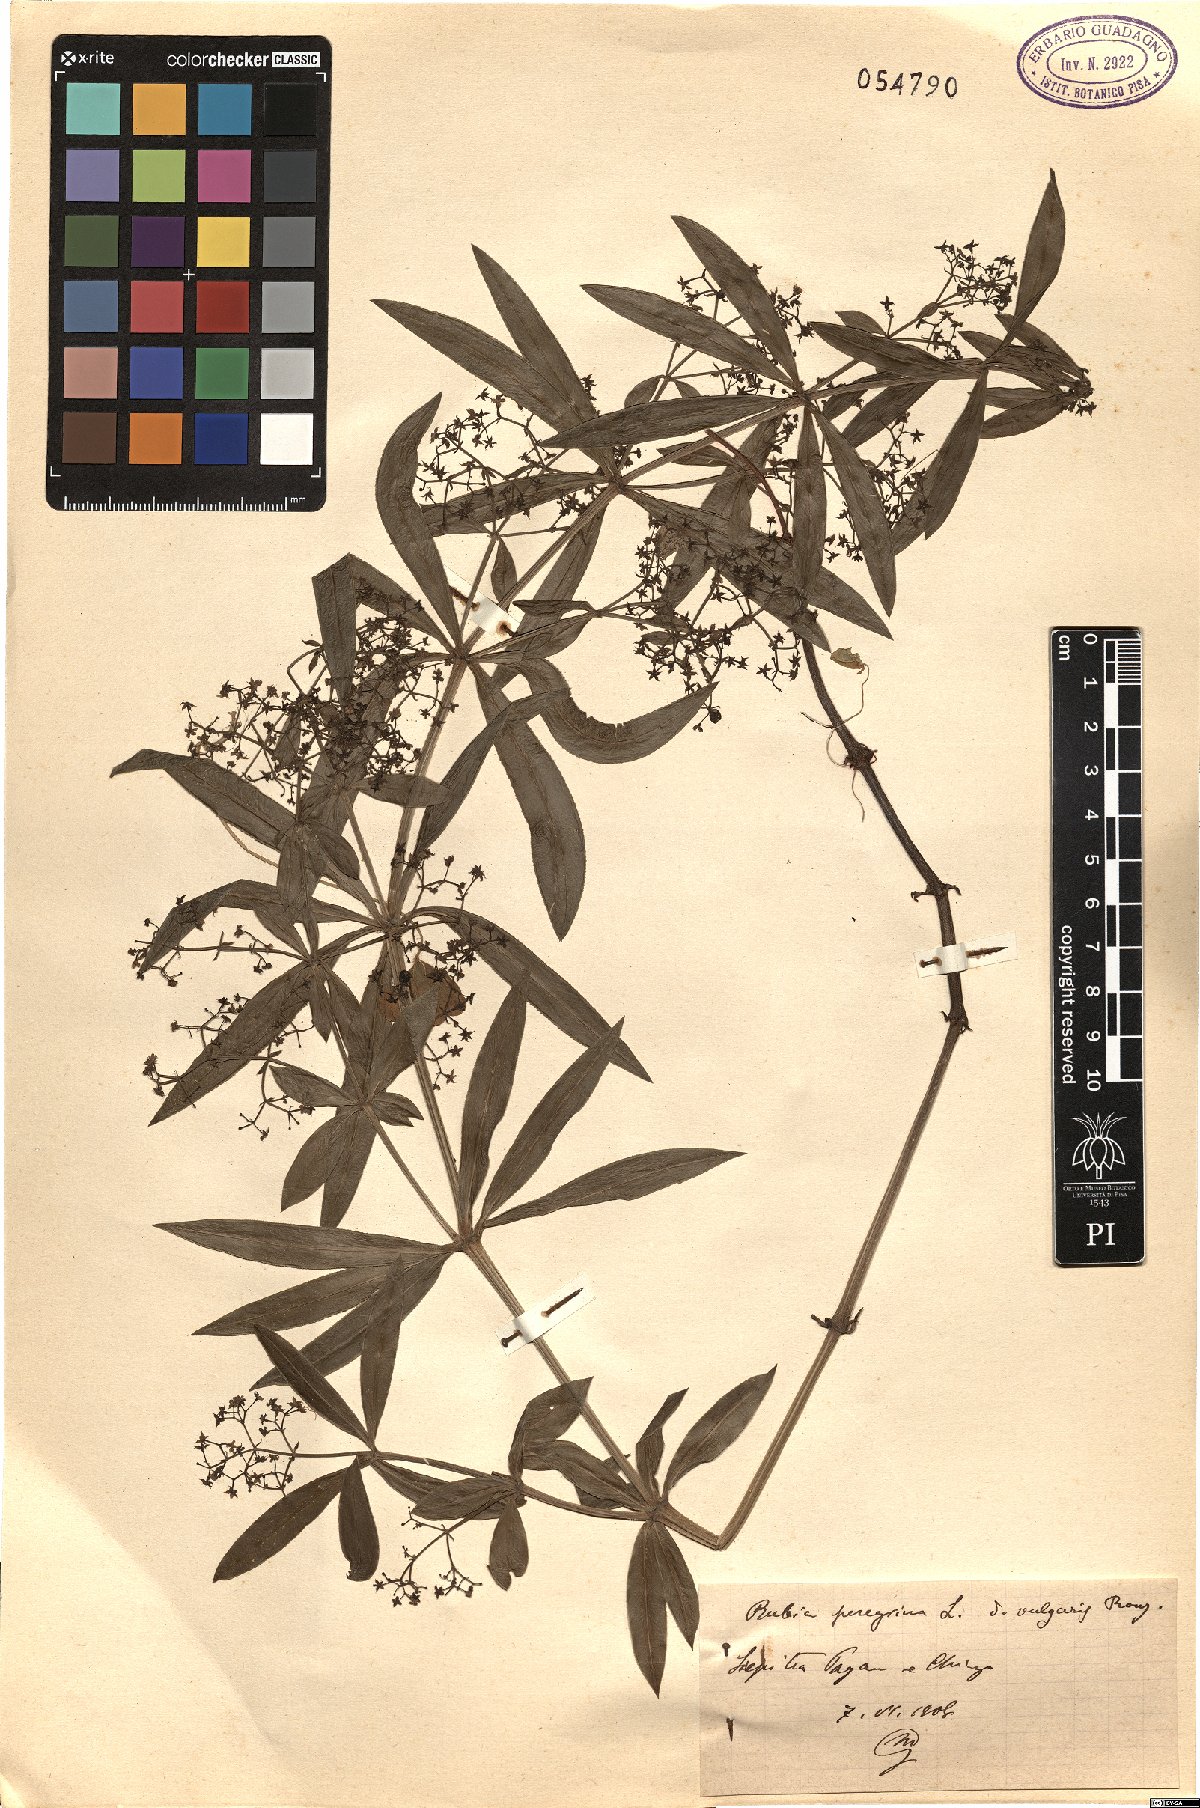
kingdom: Plantae
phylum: Tracheophyta
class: Magnoliopsida
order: Gentianales
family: Rubiaceae
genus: Rubia
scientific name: Rubia peregrina
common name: Wild madder
